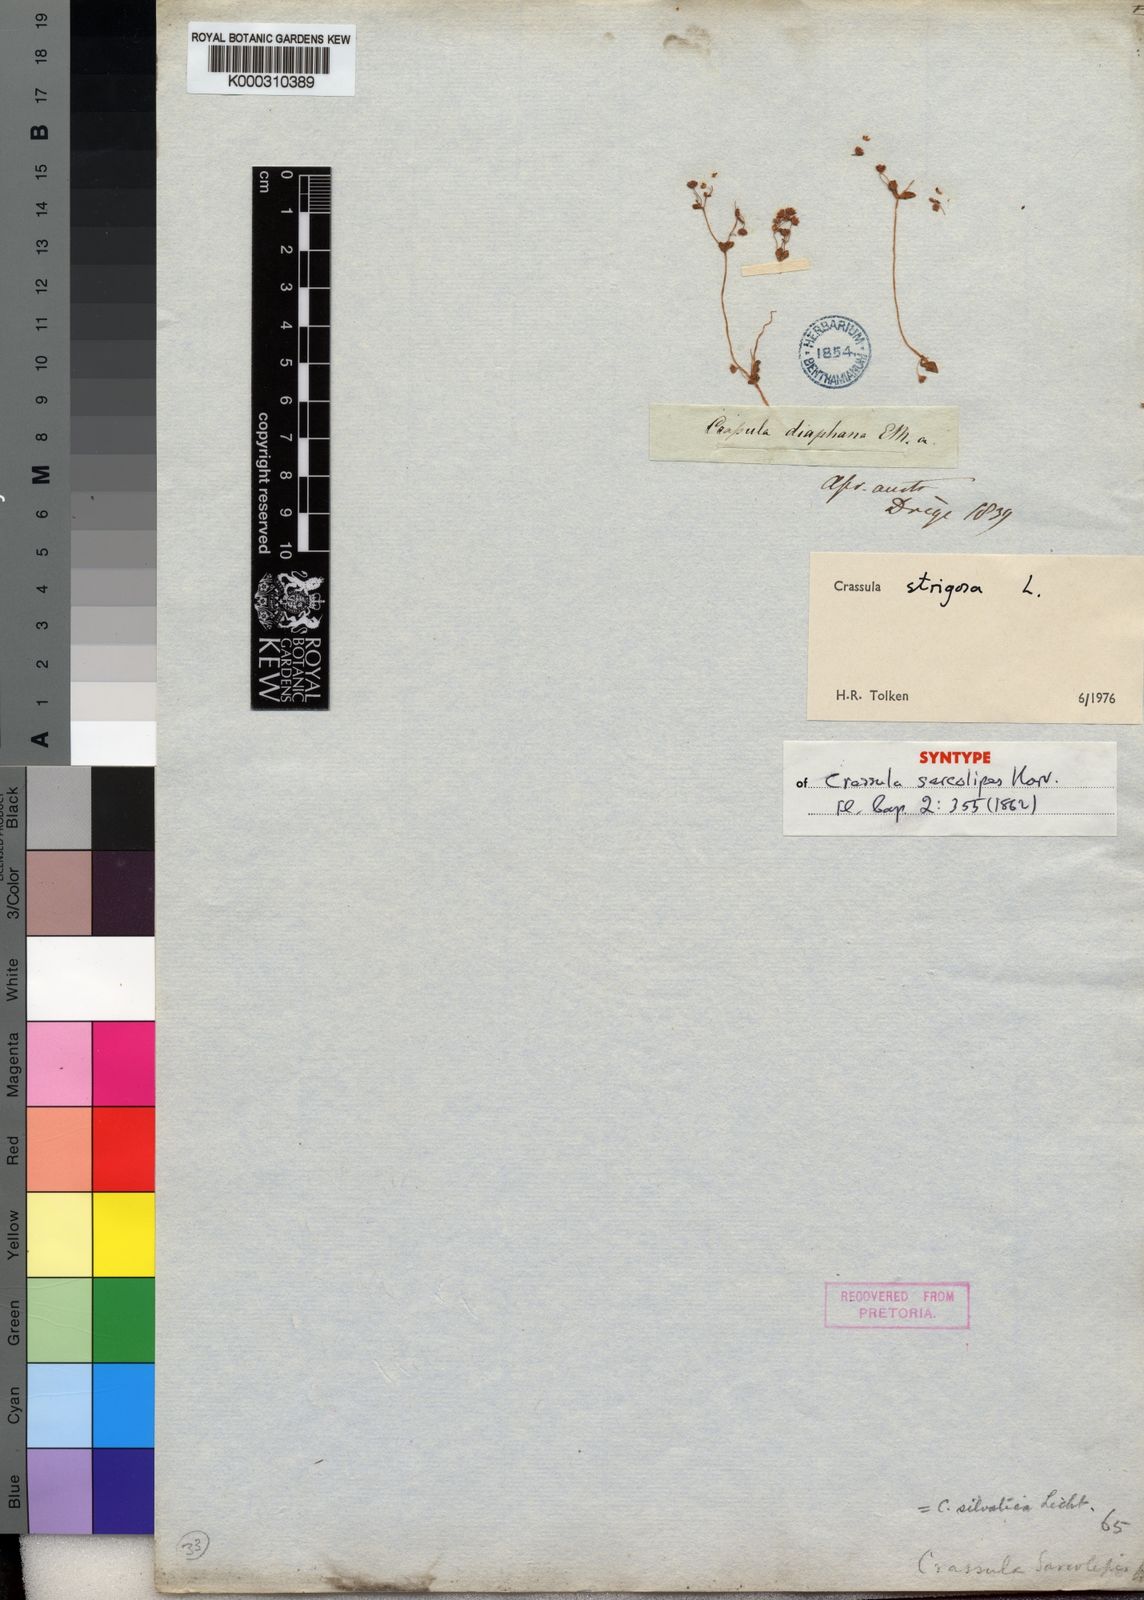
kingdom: Plantae
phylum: Tracheophyta
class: Magnoliopsida
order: Saxifragales
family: Crassulaceae
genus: Crassula
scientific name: Crassula strigosa
